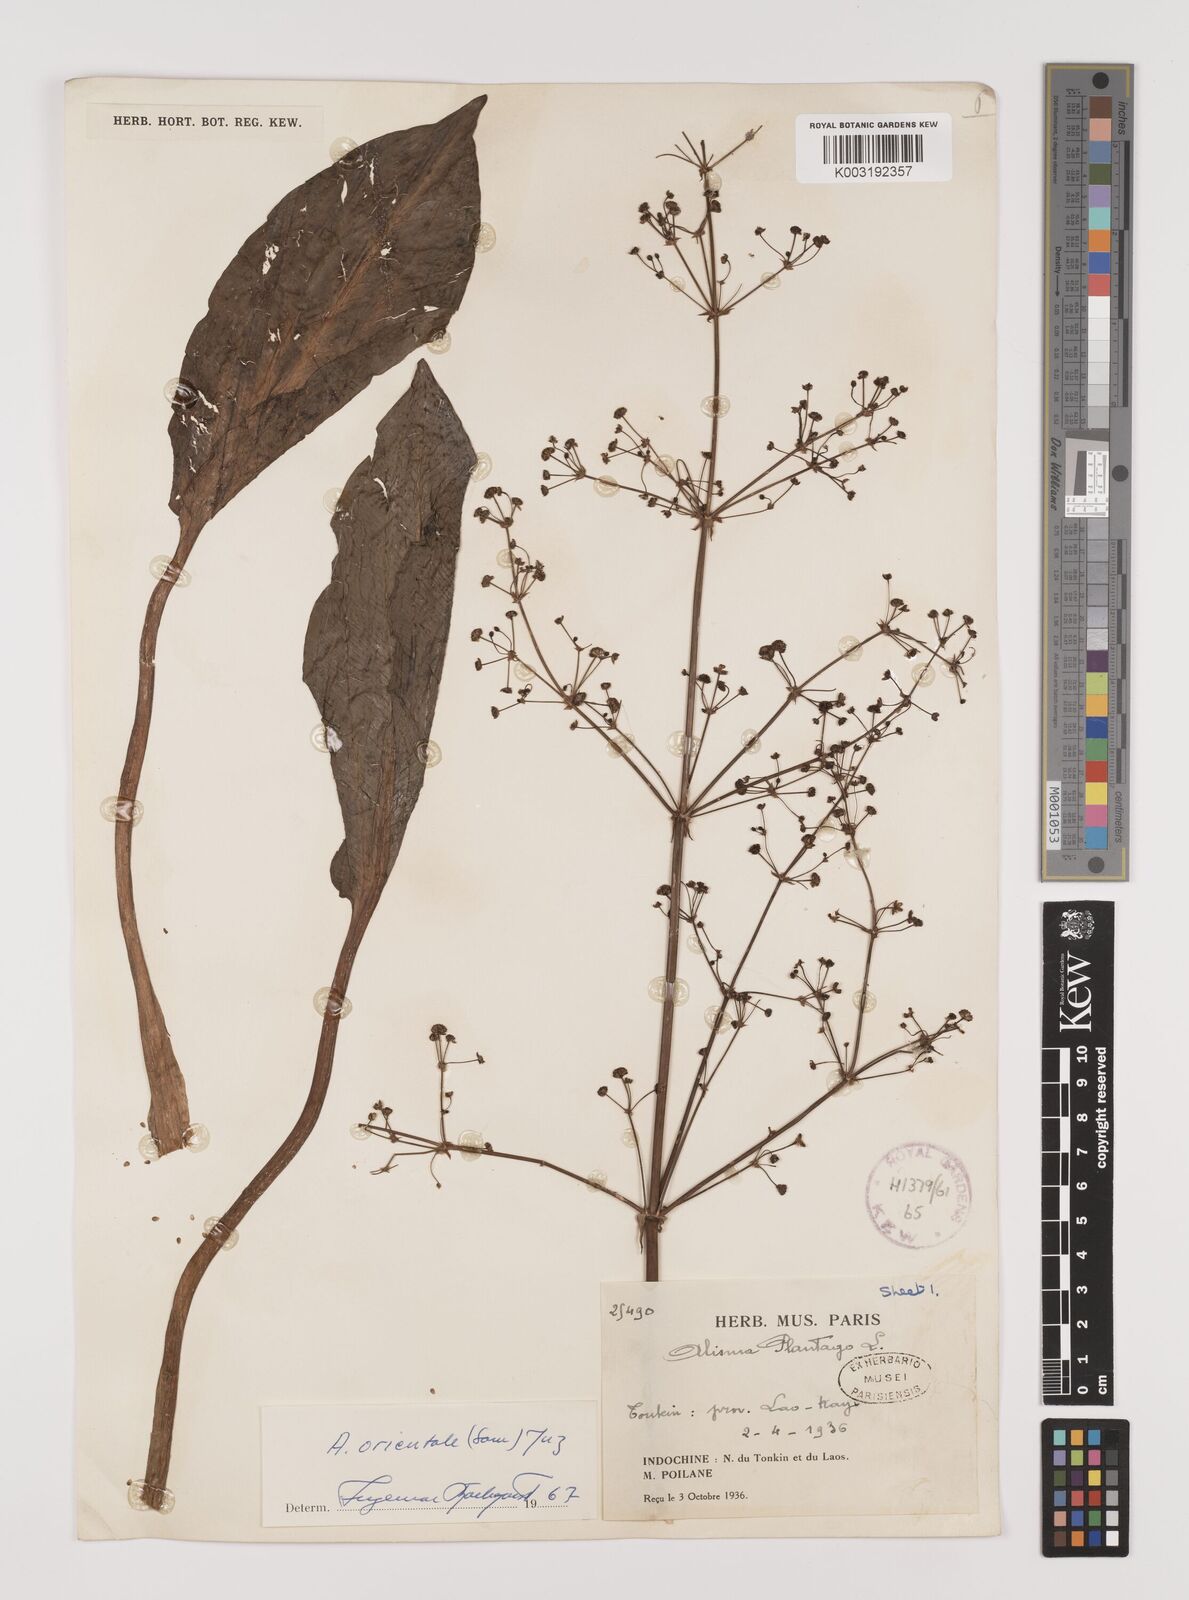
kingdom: Plantae
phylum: Tracheophyta
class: Liliopsida
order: Alismatales
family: Alismataceae
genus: Alisma
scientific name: Alisma plantago-aquatica
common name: Water-plantain
